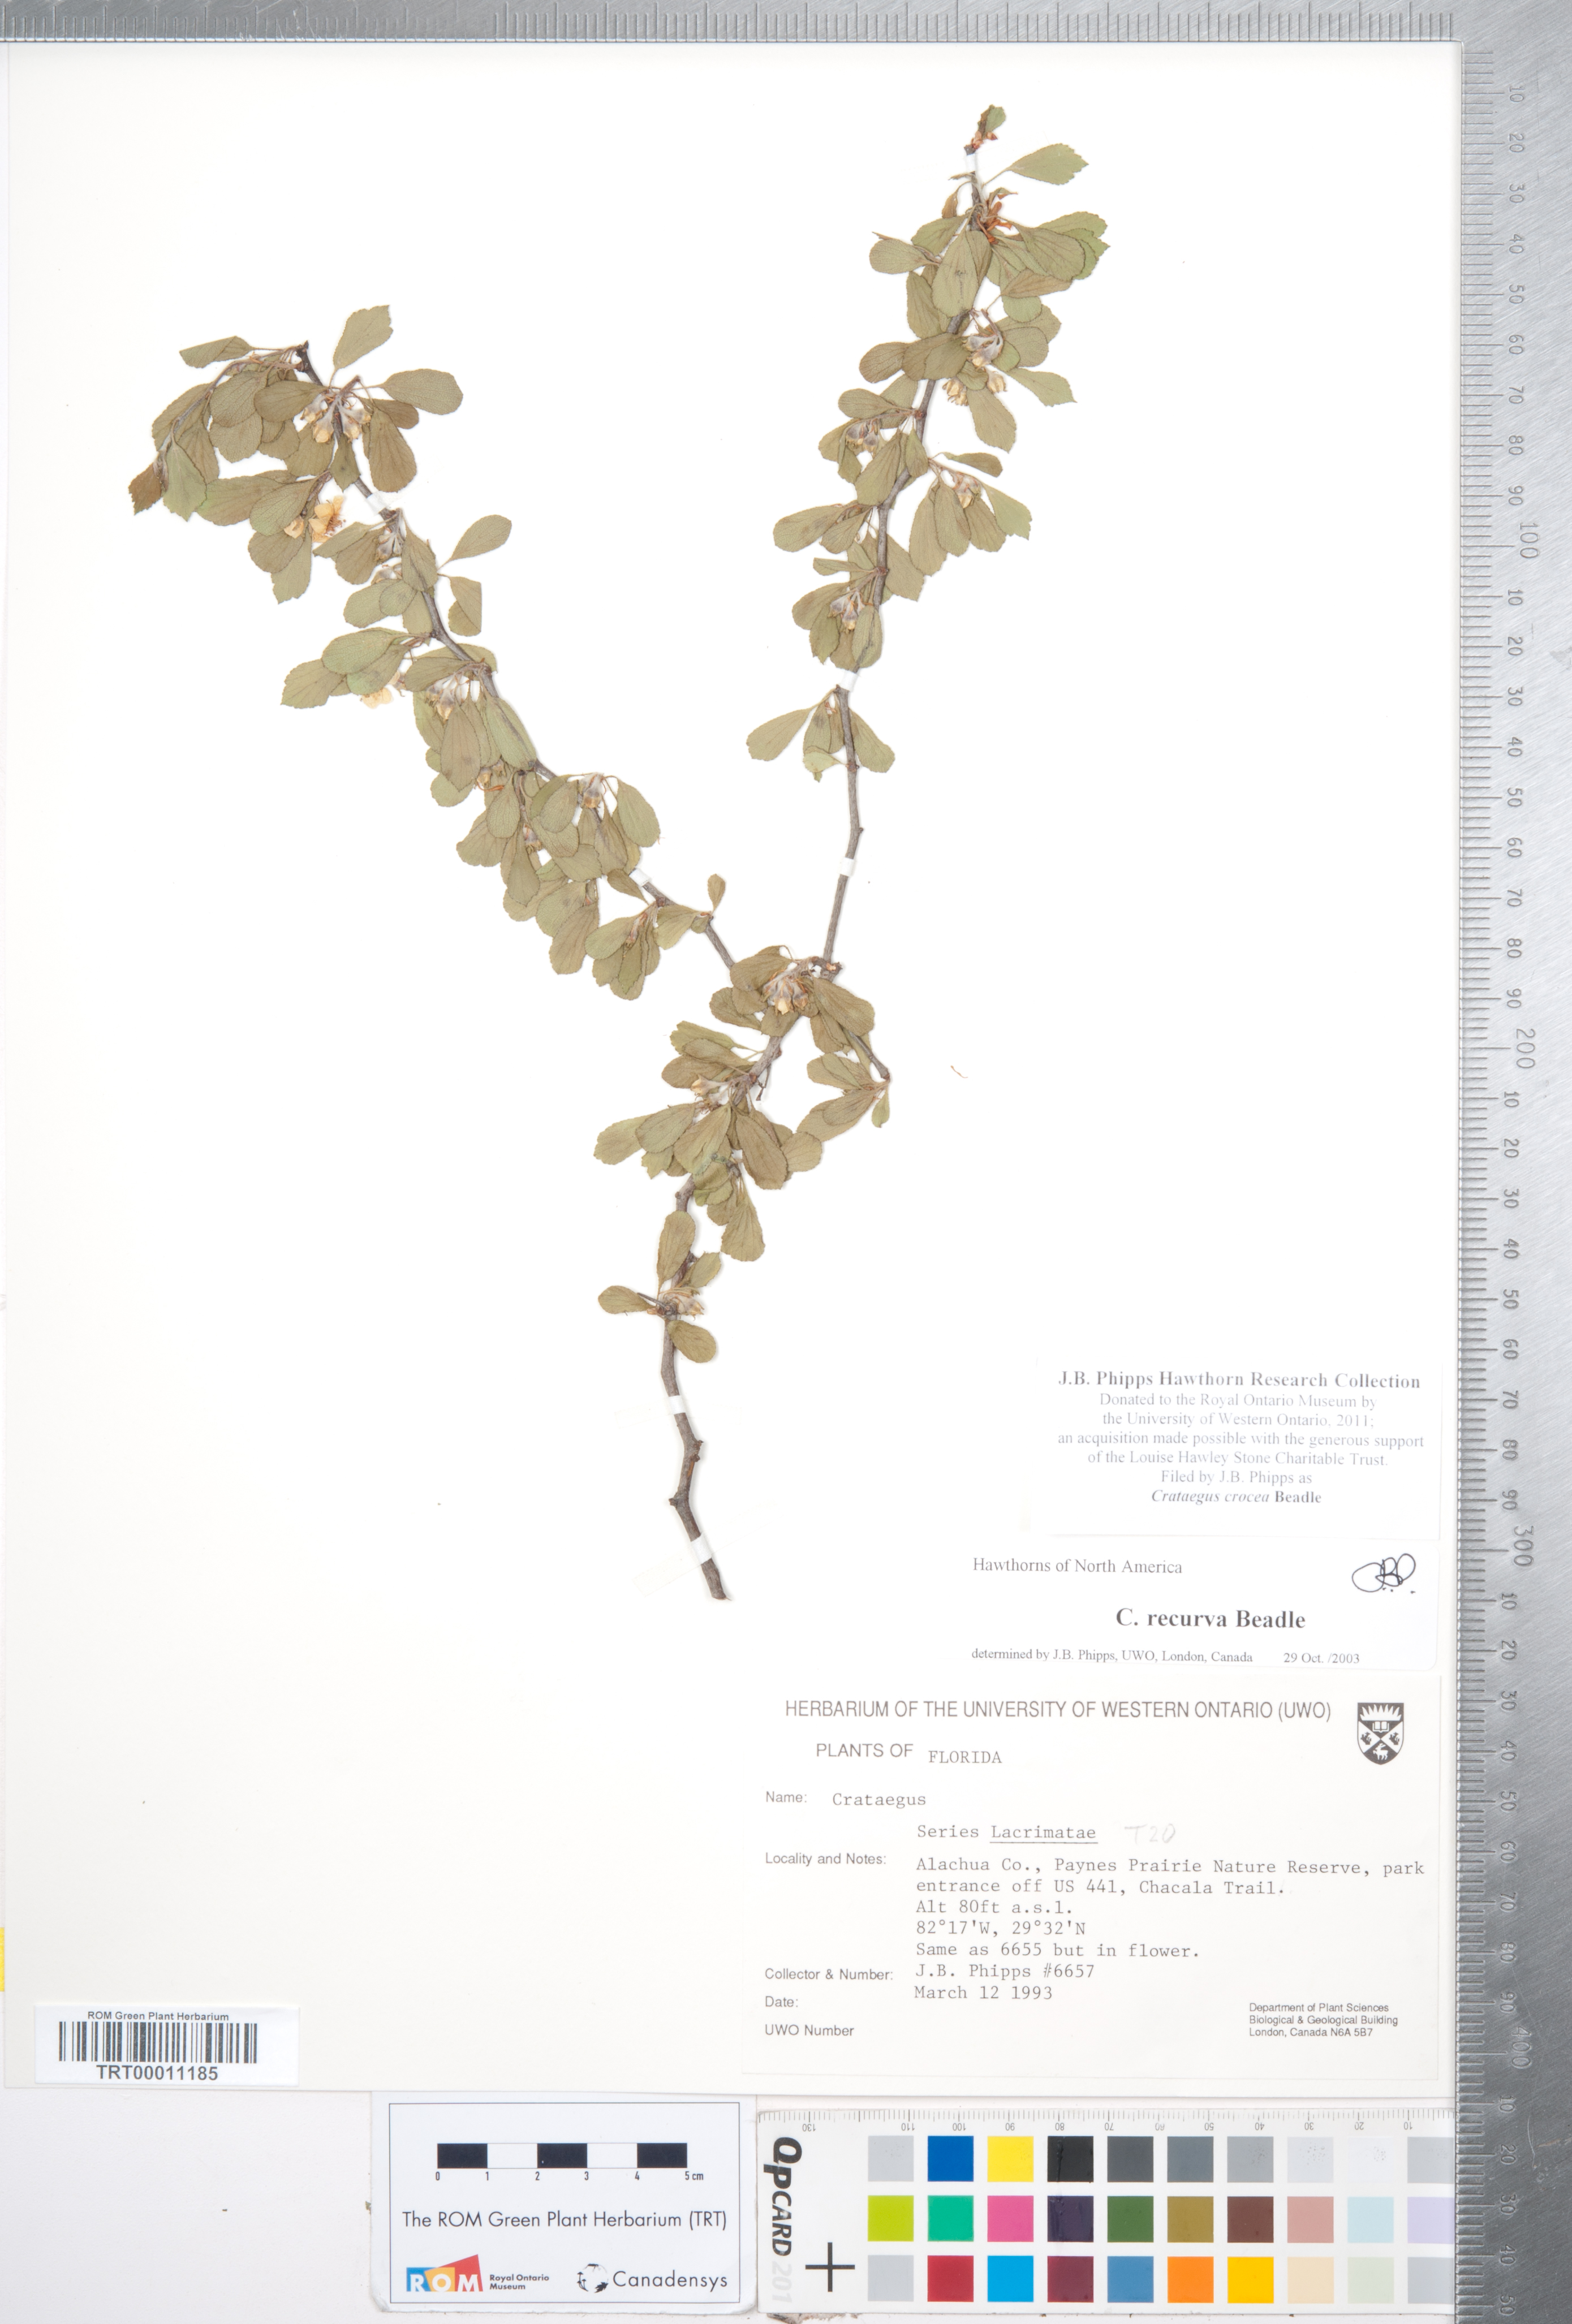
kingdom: Plantae
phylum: Tracheophyta
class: Magnoliopsida
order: Rosales
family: Rosaceae
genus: Crataegus
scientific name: Crataegus lassa
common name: Florida hawthorn
